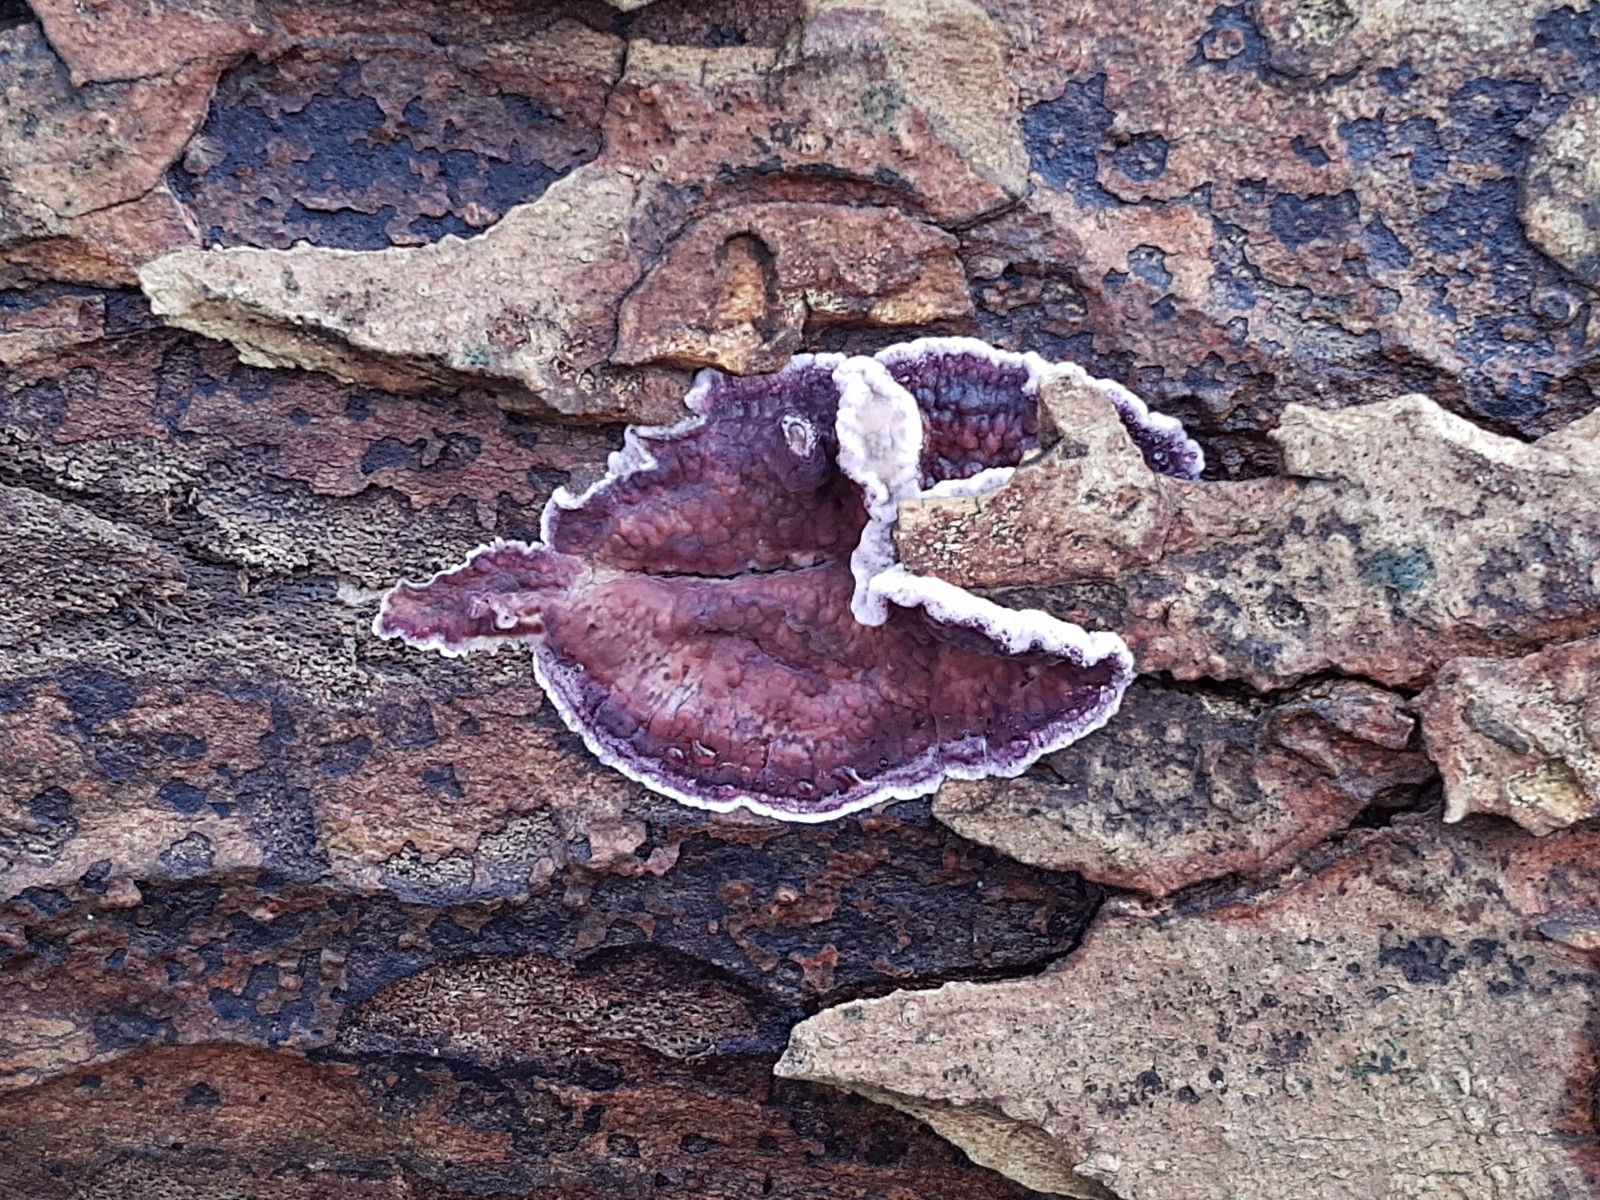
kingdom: Fungi
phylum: Basidiomycota
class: Agaricomycetes
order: Agaricales
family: Cyphellaceae
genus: Chondrostereum
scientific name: Chondrostereum purpureum
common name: purpurlædersvamp
